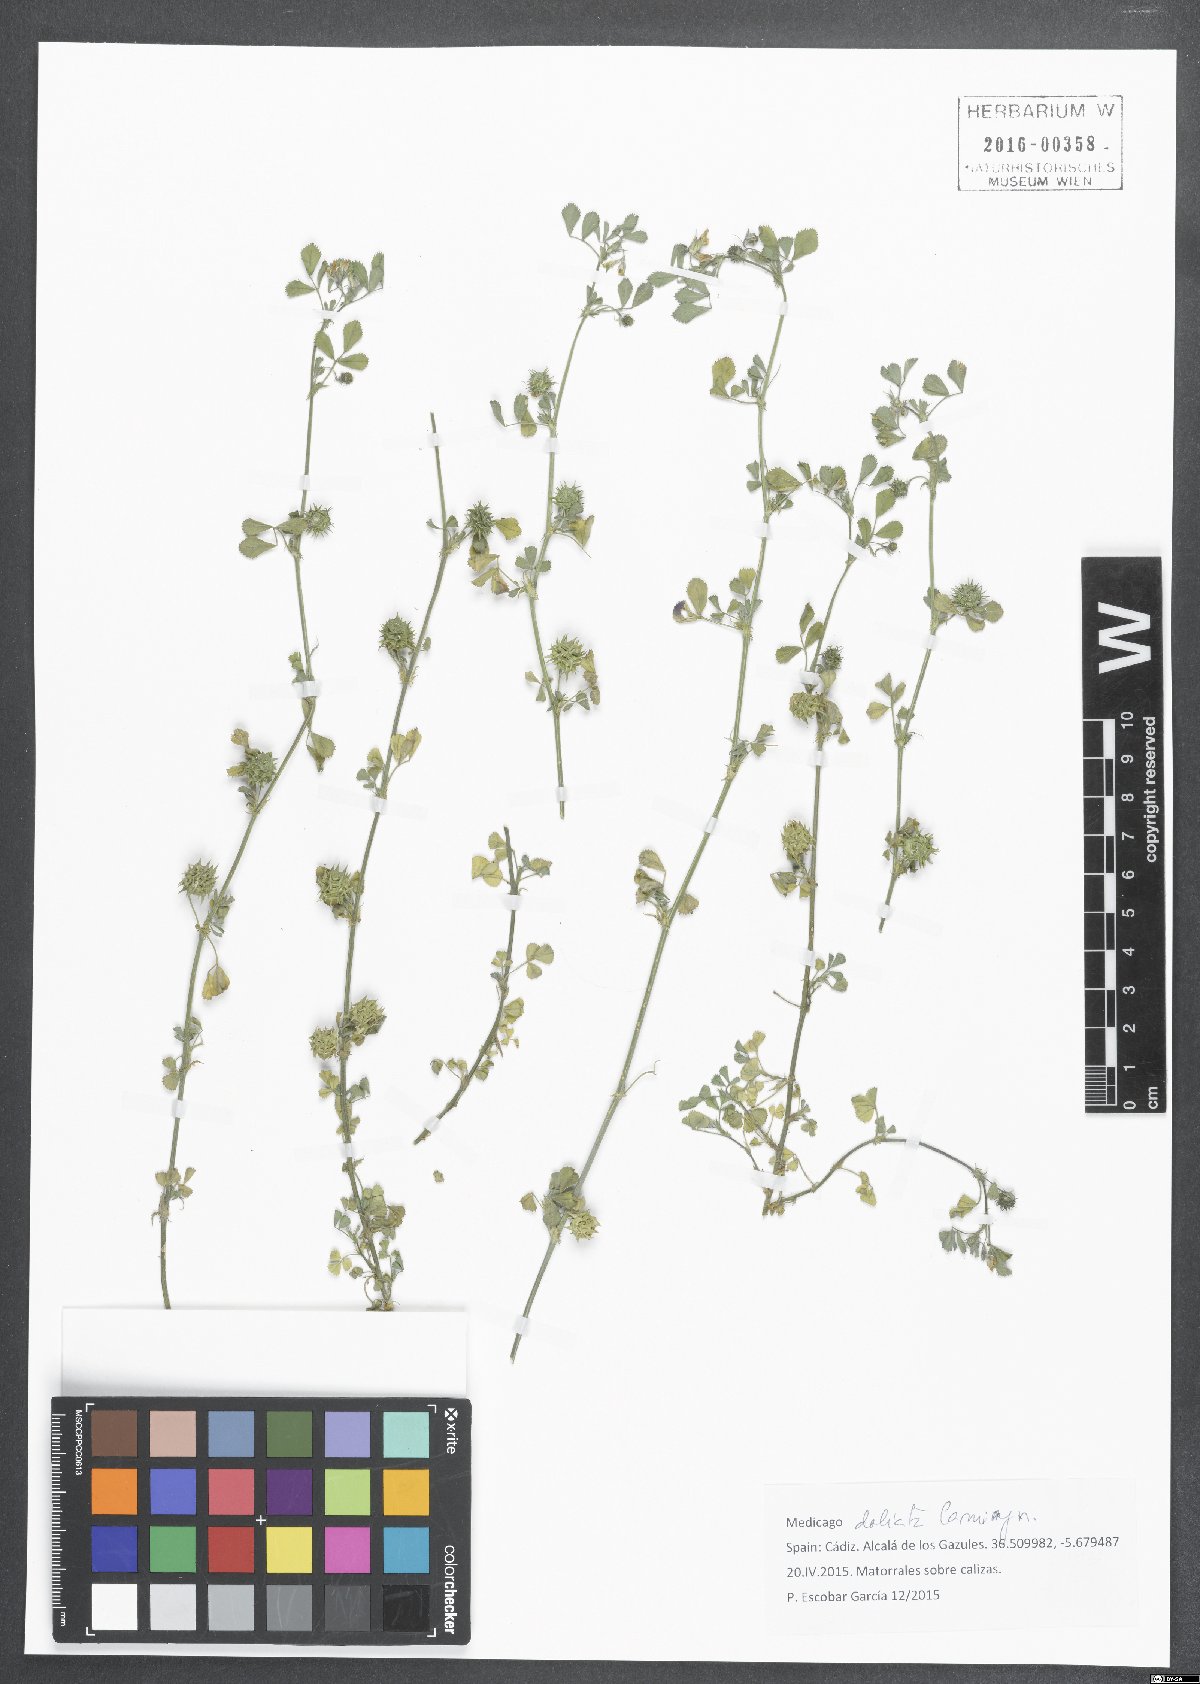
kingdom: Plantae
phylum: Tracheophyta
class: Magnoliopsida
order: Fabales
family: Fabaceae
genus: Medicago
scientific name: Medicago truncatula
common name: Strong-spined medick
